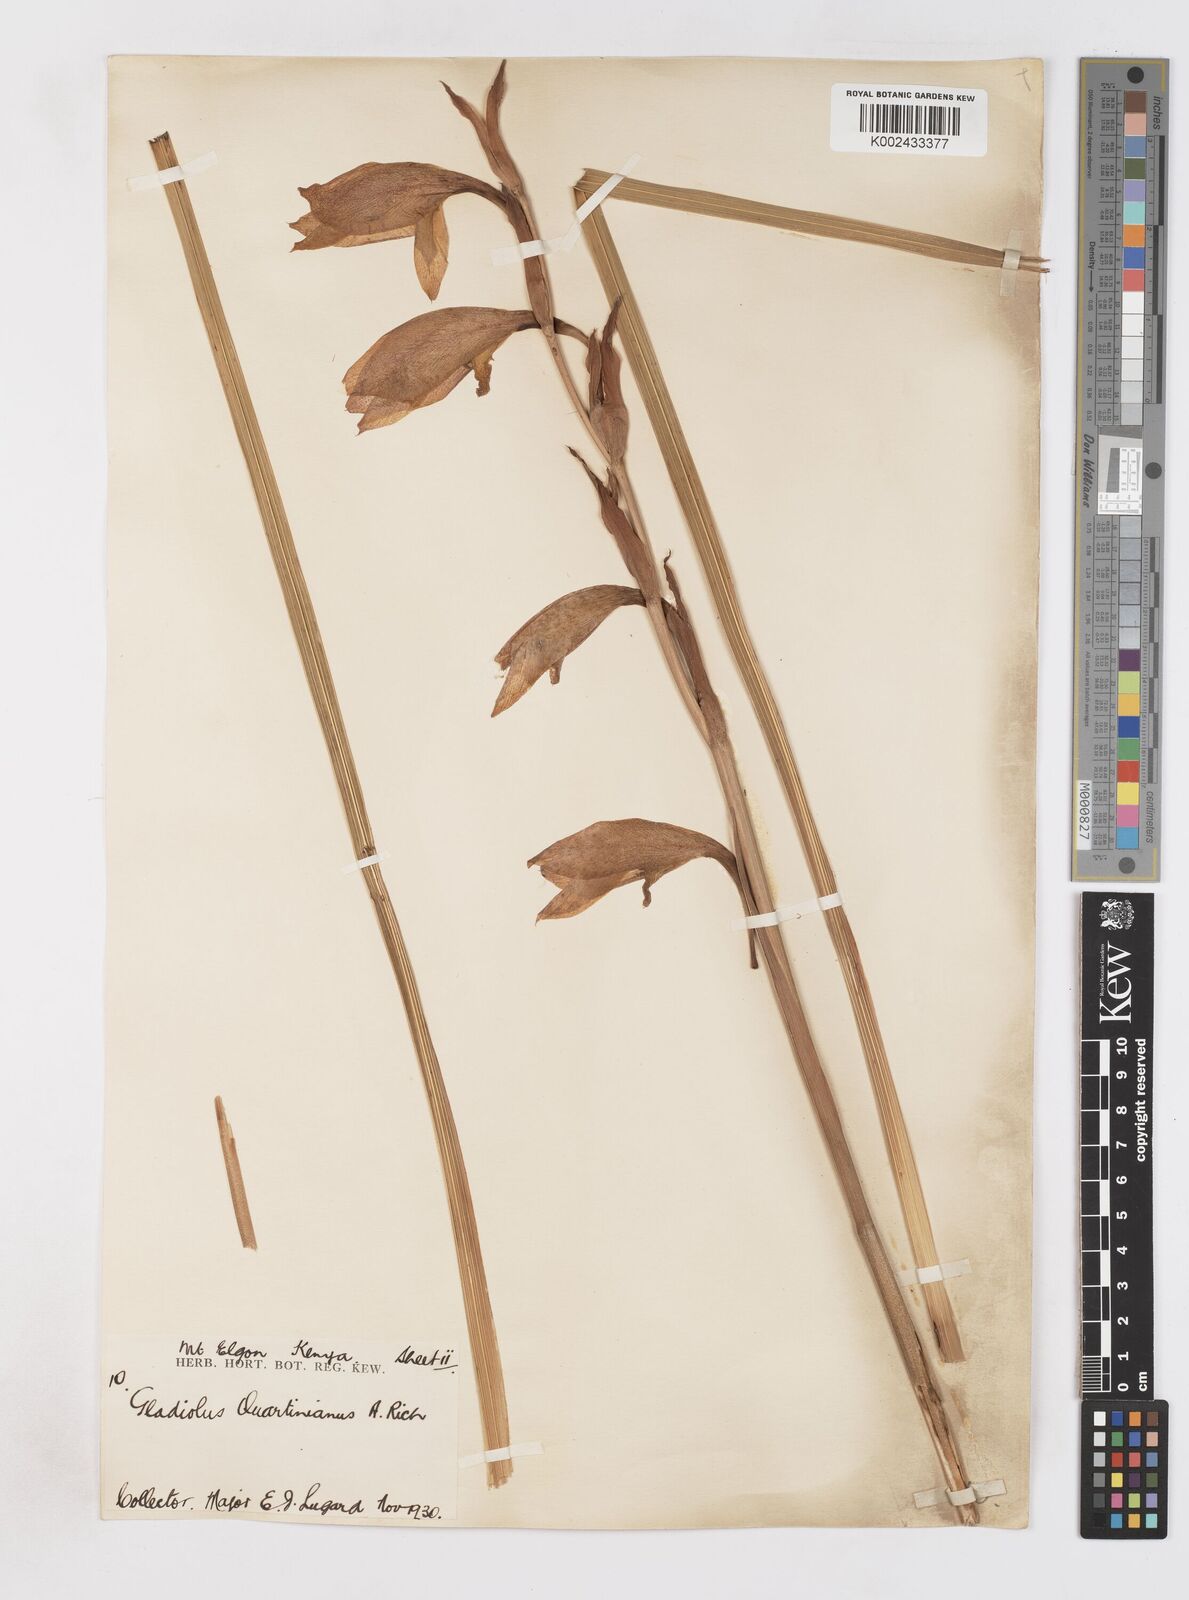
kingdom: Plantae
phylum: Tracheophyta
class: Liliopsida
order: Asparagales
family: Iridaceae
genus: Gladiolus
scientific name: Gladiolus dalenii
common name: Cornflag
